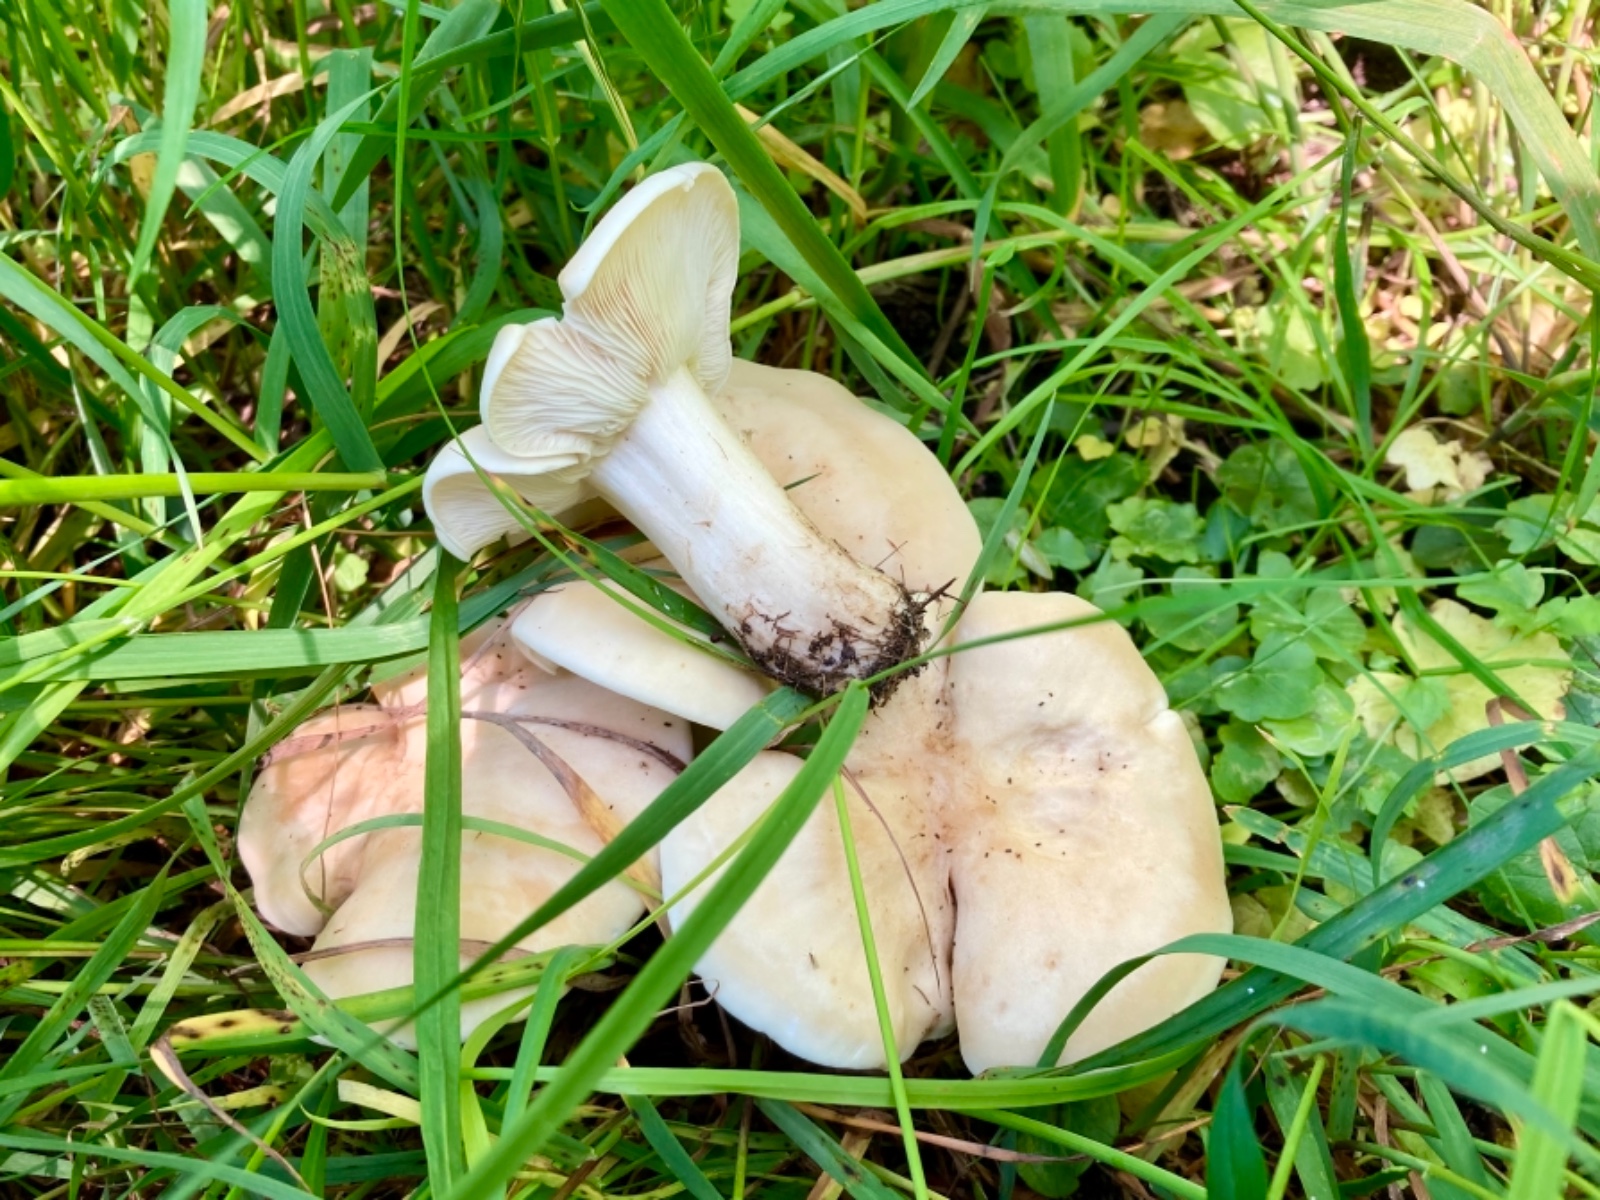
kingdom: Fungi
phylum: Basidiomycota
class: Agaricomycetes
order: Agaricales
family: Lyophyllaceae
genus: Calocybe
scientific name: Calocybe gambosa
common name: vårmusseron
